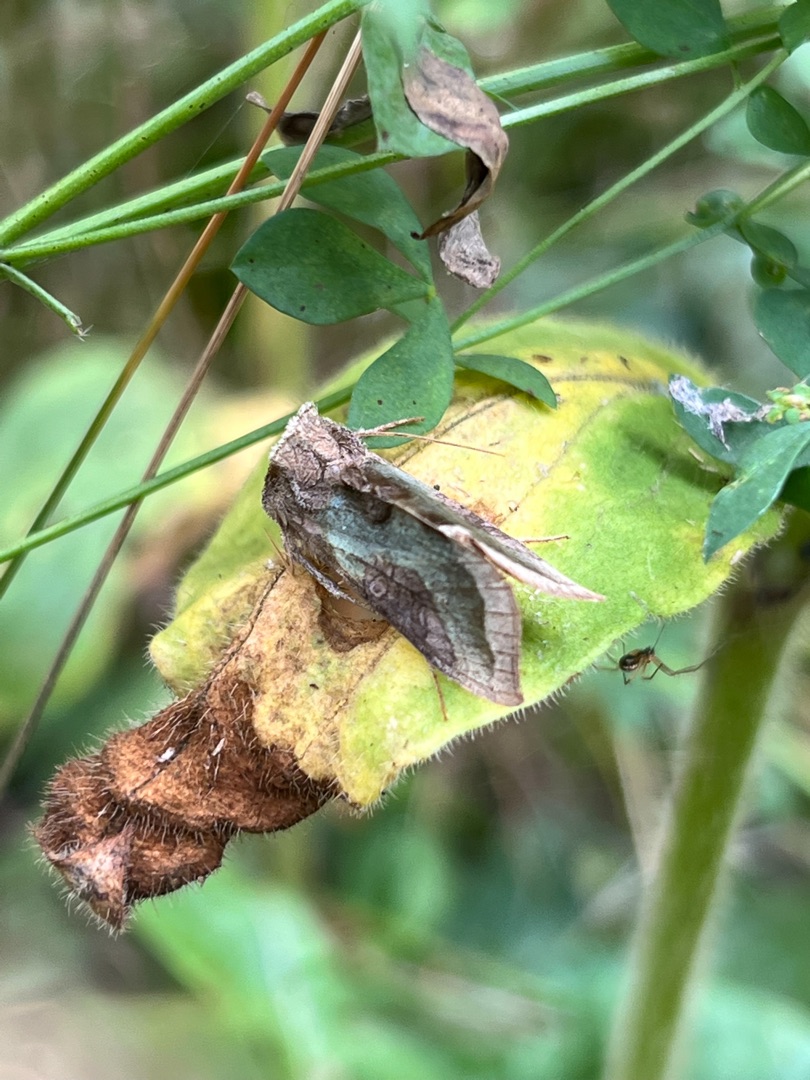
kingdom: Animalia
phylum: Arthropoda
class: Insecta
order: Lepidoptera
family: Noctuidae
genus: Diachrysia
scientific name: Diachrysia chrysitis
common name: Messingugle
